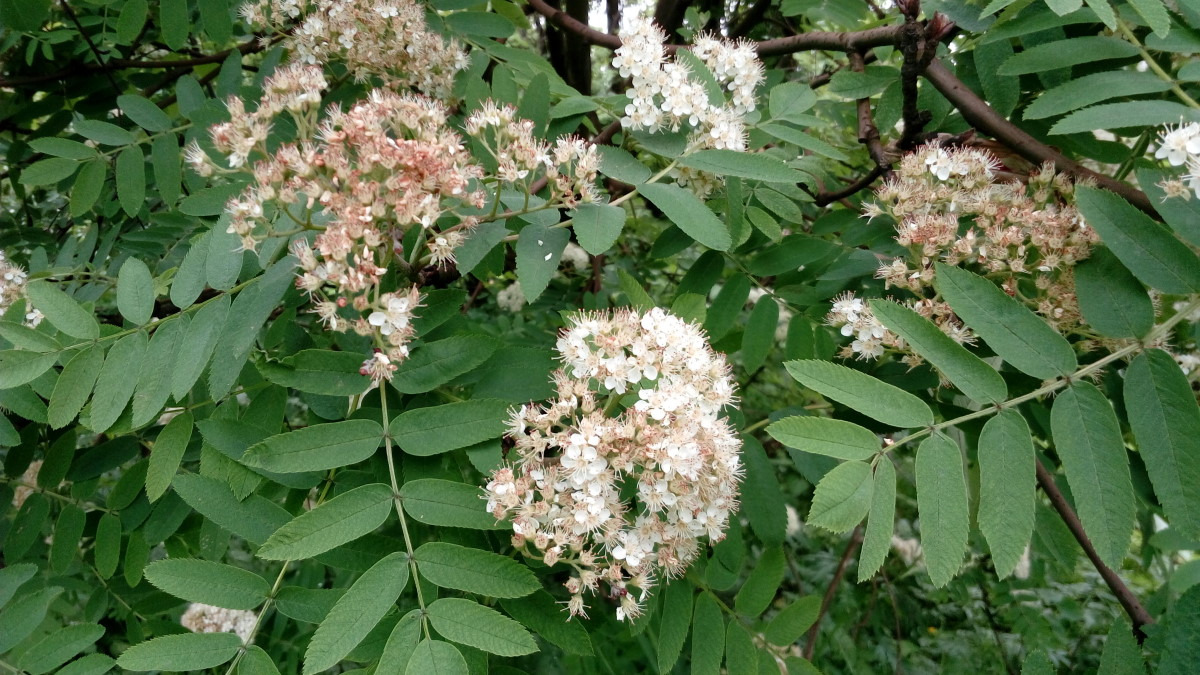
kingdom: Plantae
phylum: Tracheophyta
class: Magnoliopsida
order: Rosales
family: Rosaceae
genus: Sorbus
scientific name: Sorbus aucuparia
